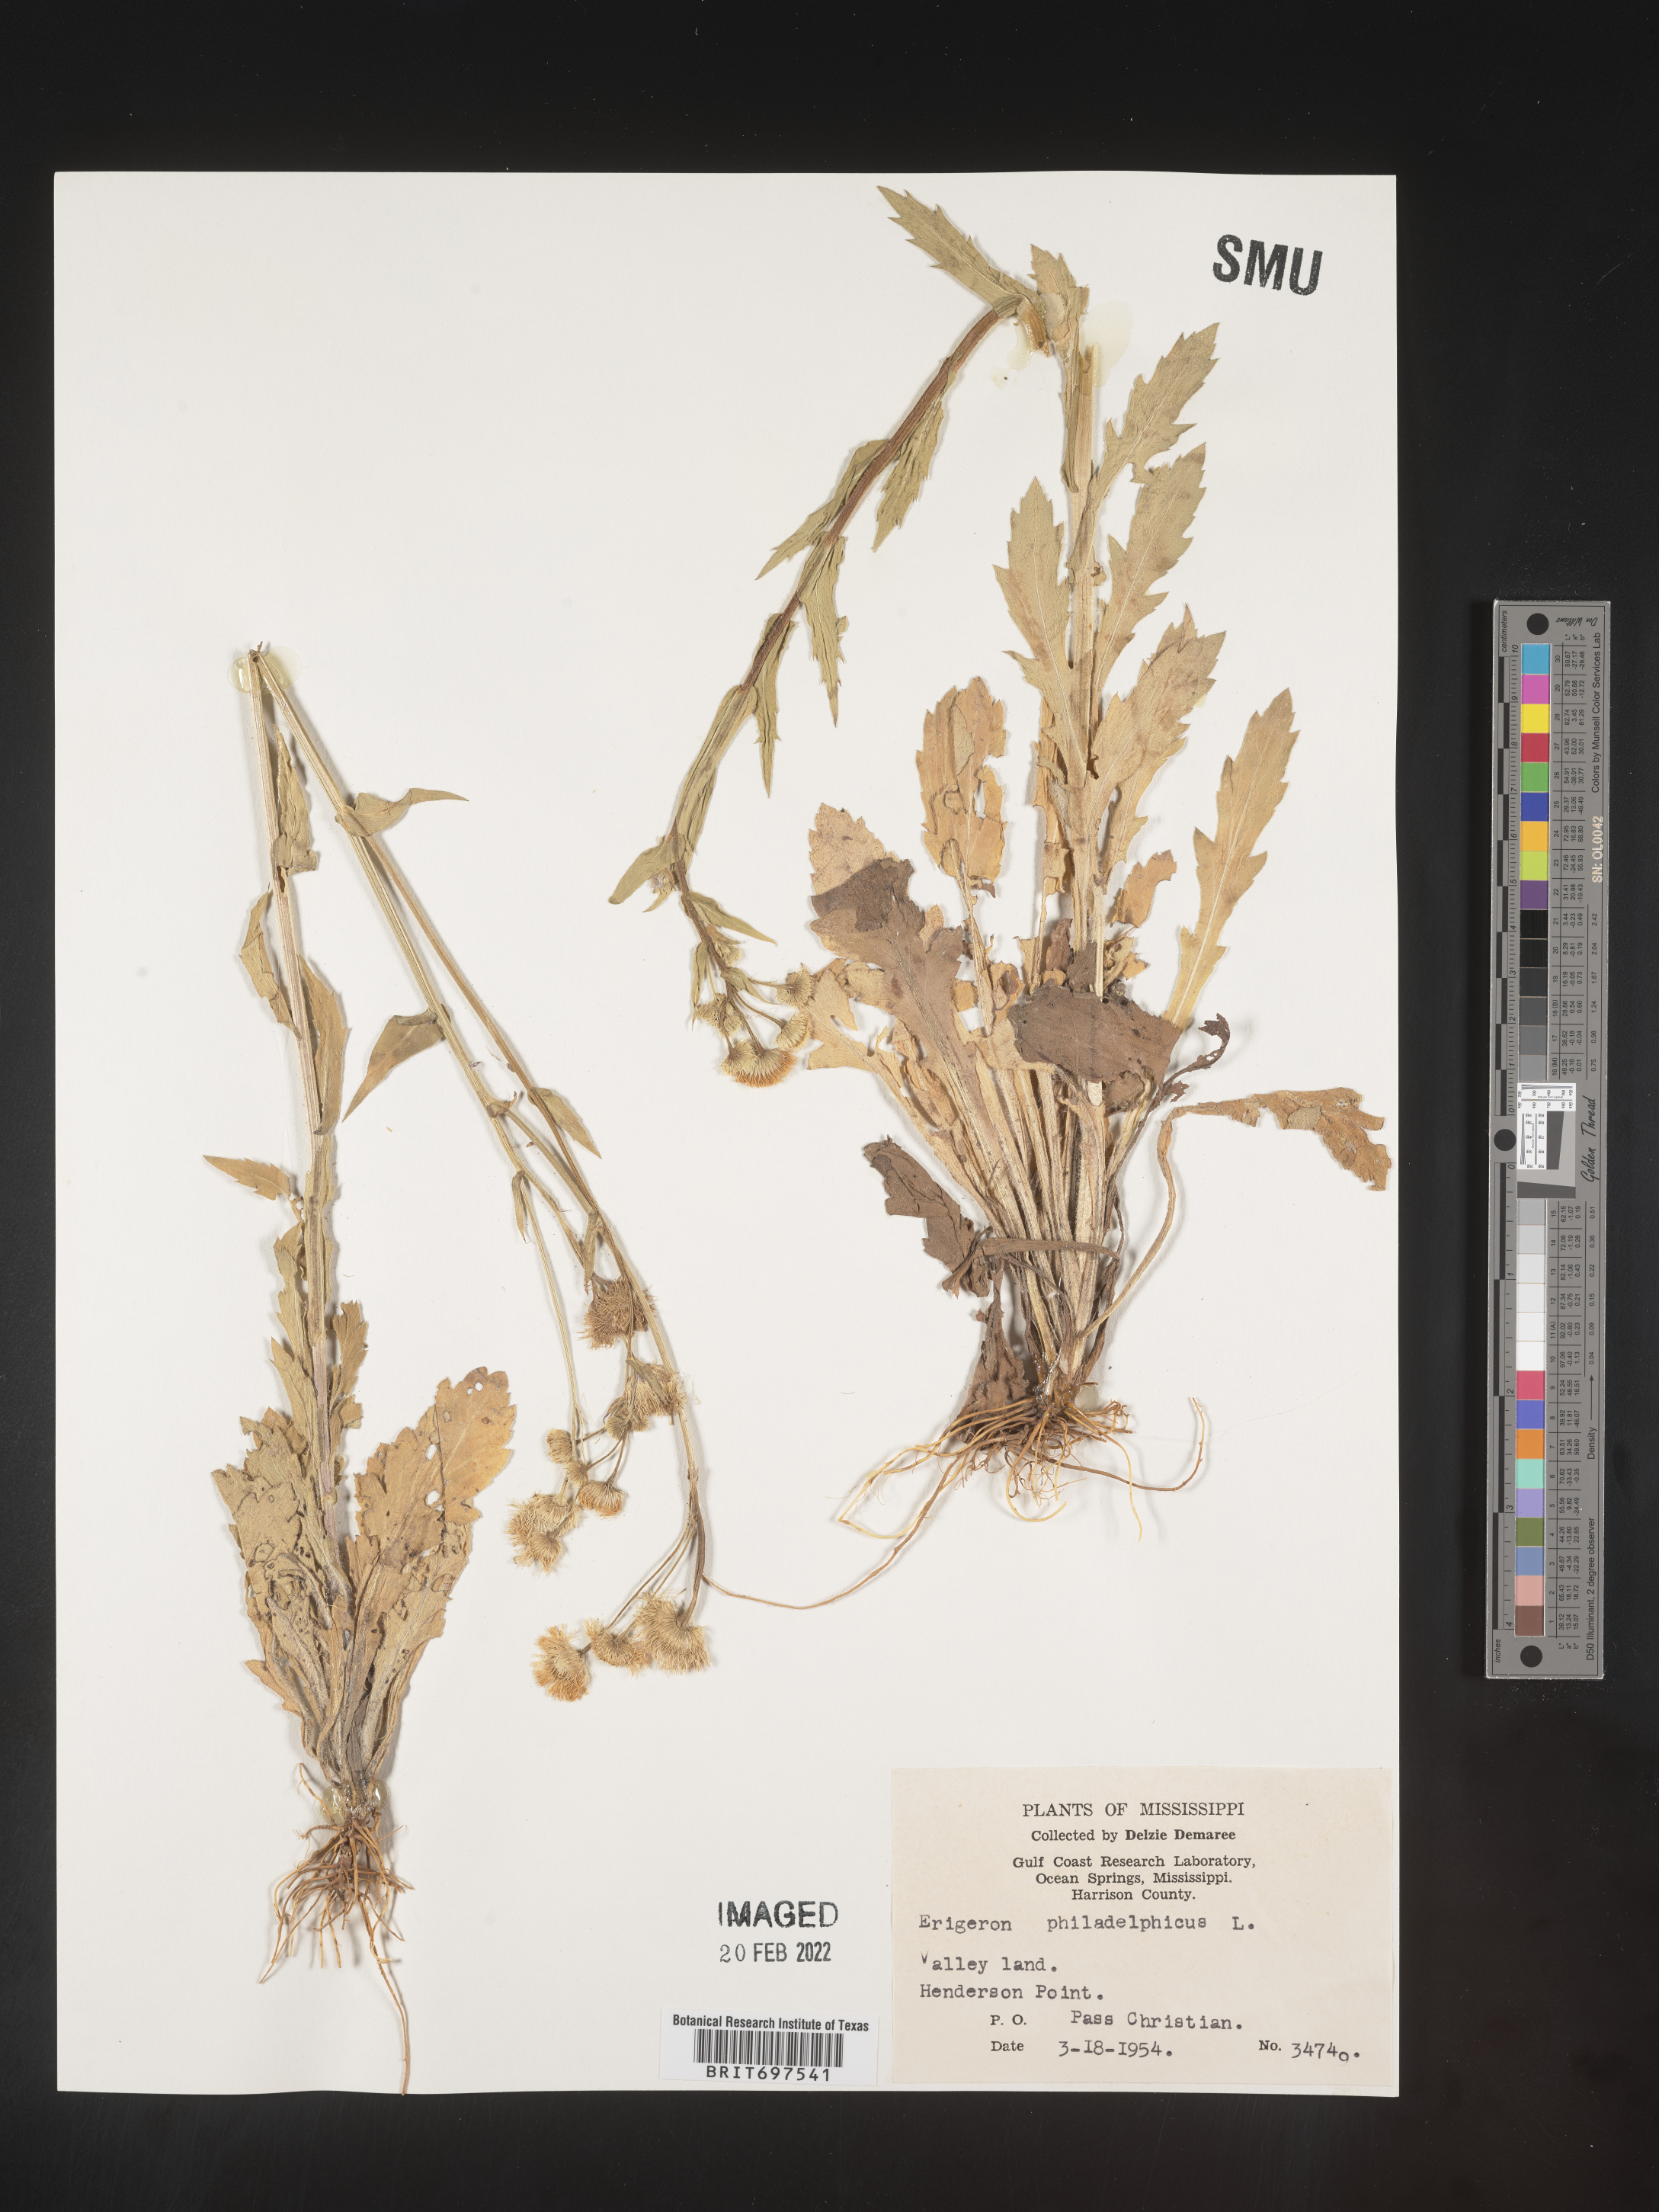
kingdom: Plantae
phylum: Tracheophyta
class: Magnoliopsida
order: Asterales
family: Asteraceae
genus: Erigeron
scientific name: Erigeron philadelphicus
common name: Robin's-plantain
